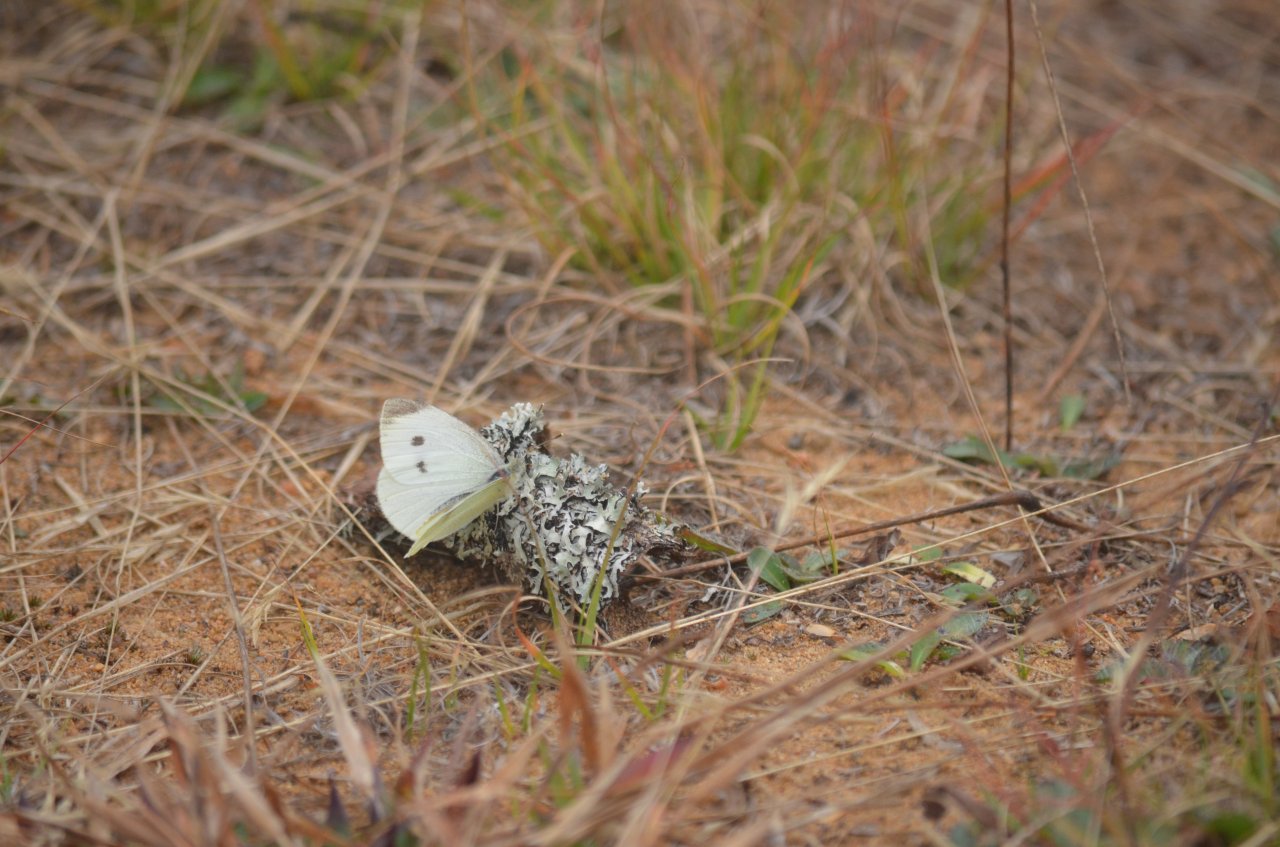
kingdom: Animalia
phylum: Arthropoda
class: Insecta
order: Lepidoptera
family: Pieridae
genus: Pieris
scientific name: Pieris rapae
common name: Cabbage White
